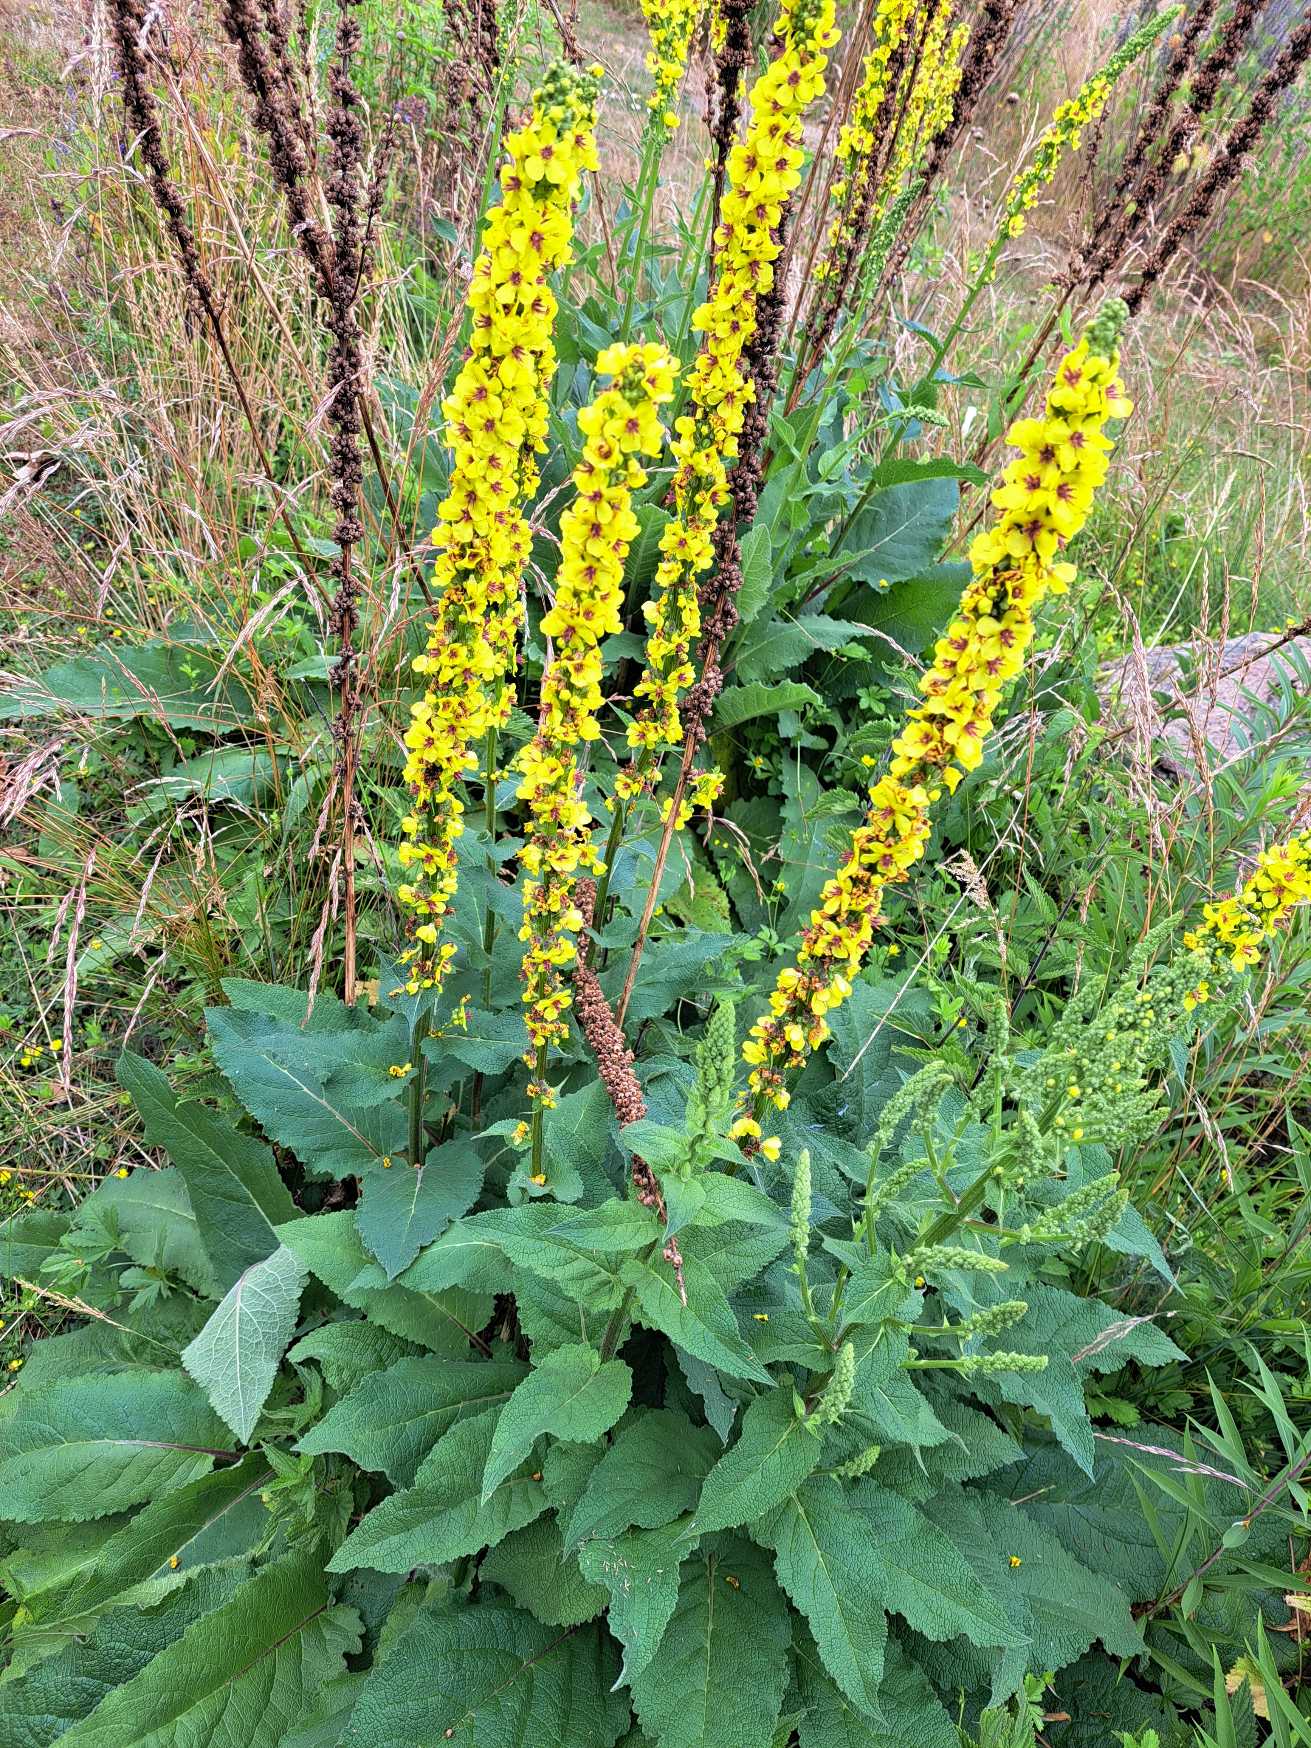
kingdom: Plantae
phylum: Tracheophyta
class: Magnoliopsida
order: Lamiales
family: Scrophulariaceae
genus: Verbascum
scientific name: Verbascum nigrum
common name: Mørk kongelys
